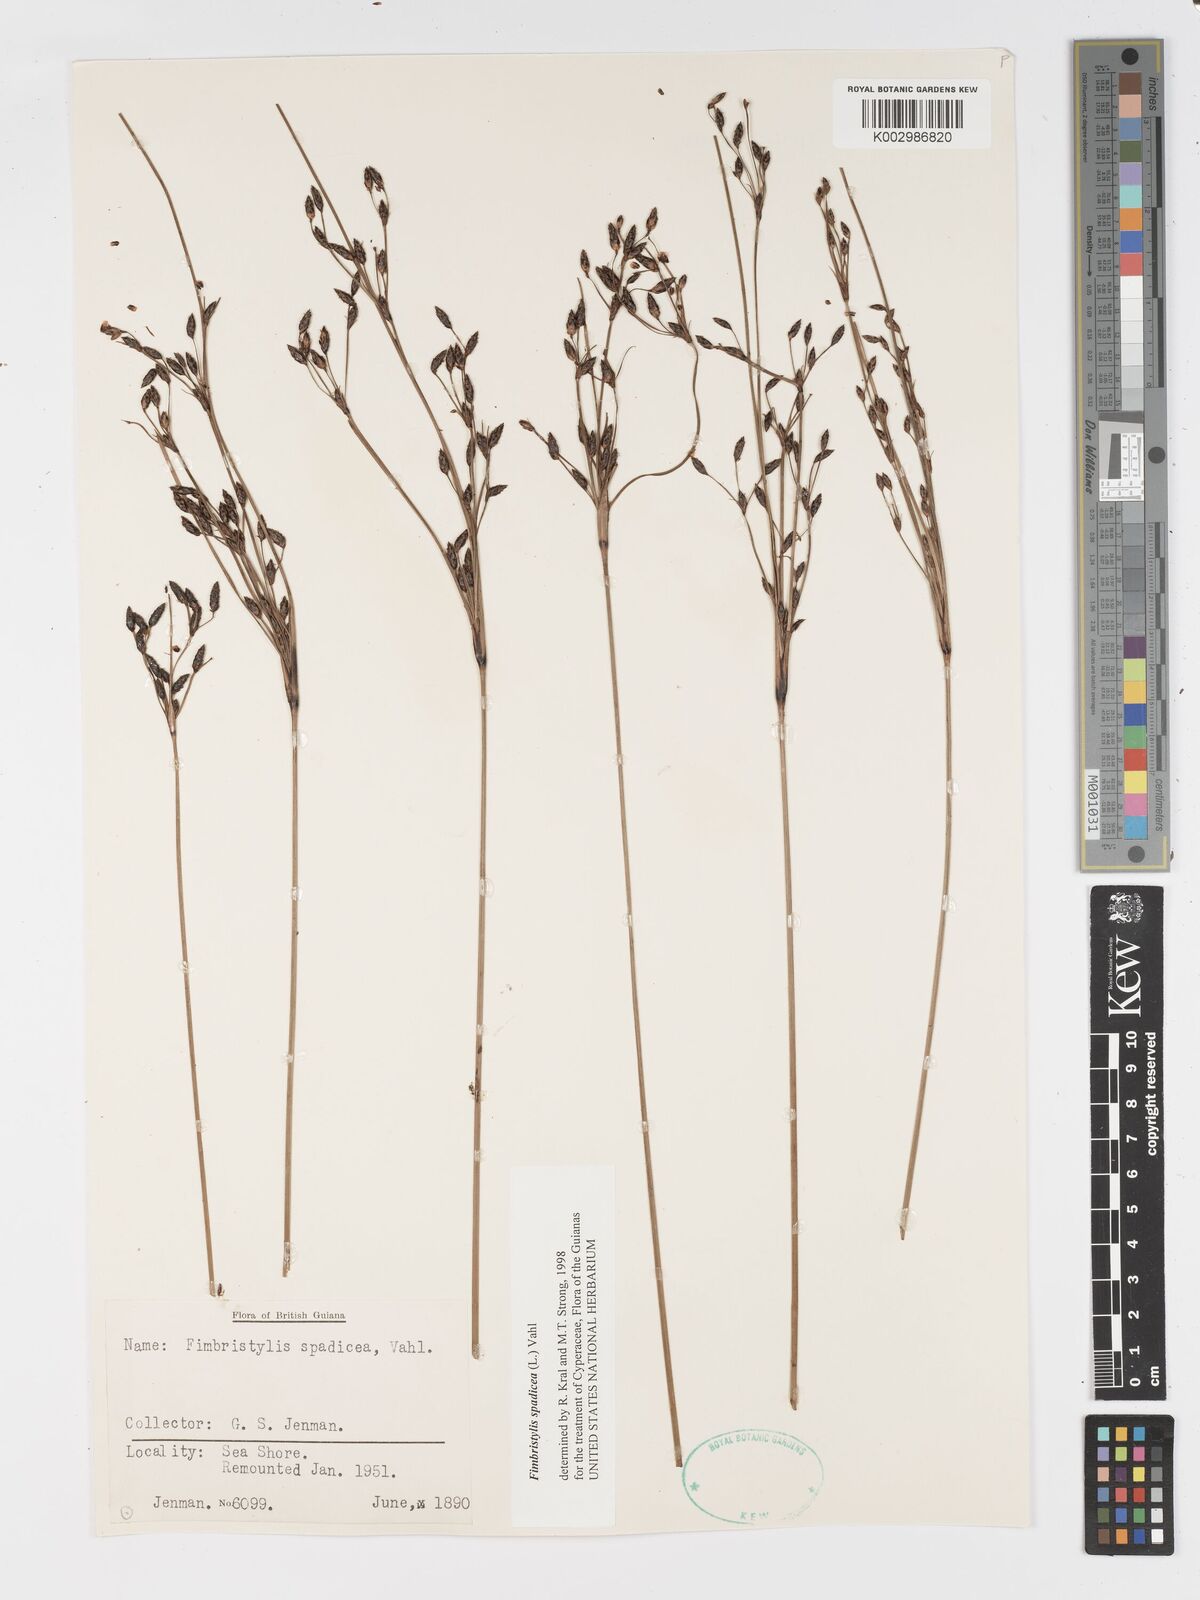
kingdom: Plantae
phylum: Tracheophyta
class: Liliopsida
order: Poales
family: Cyperaceae
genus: Fimbristylis
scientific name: Fimbristylis spadicea
